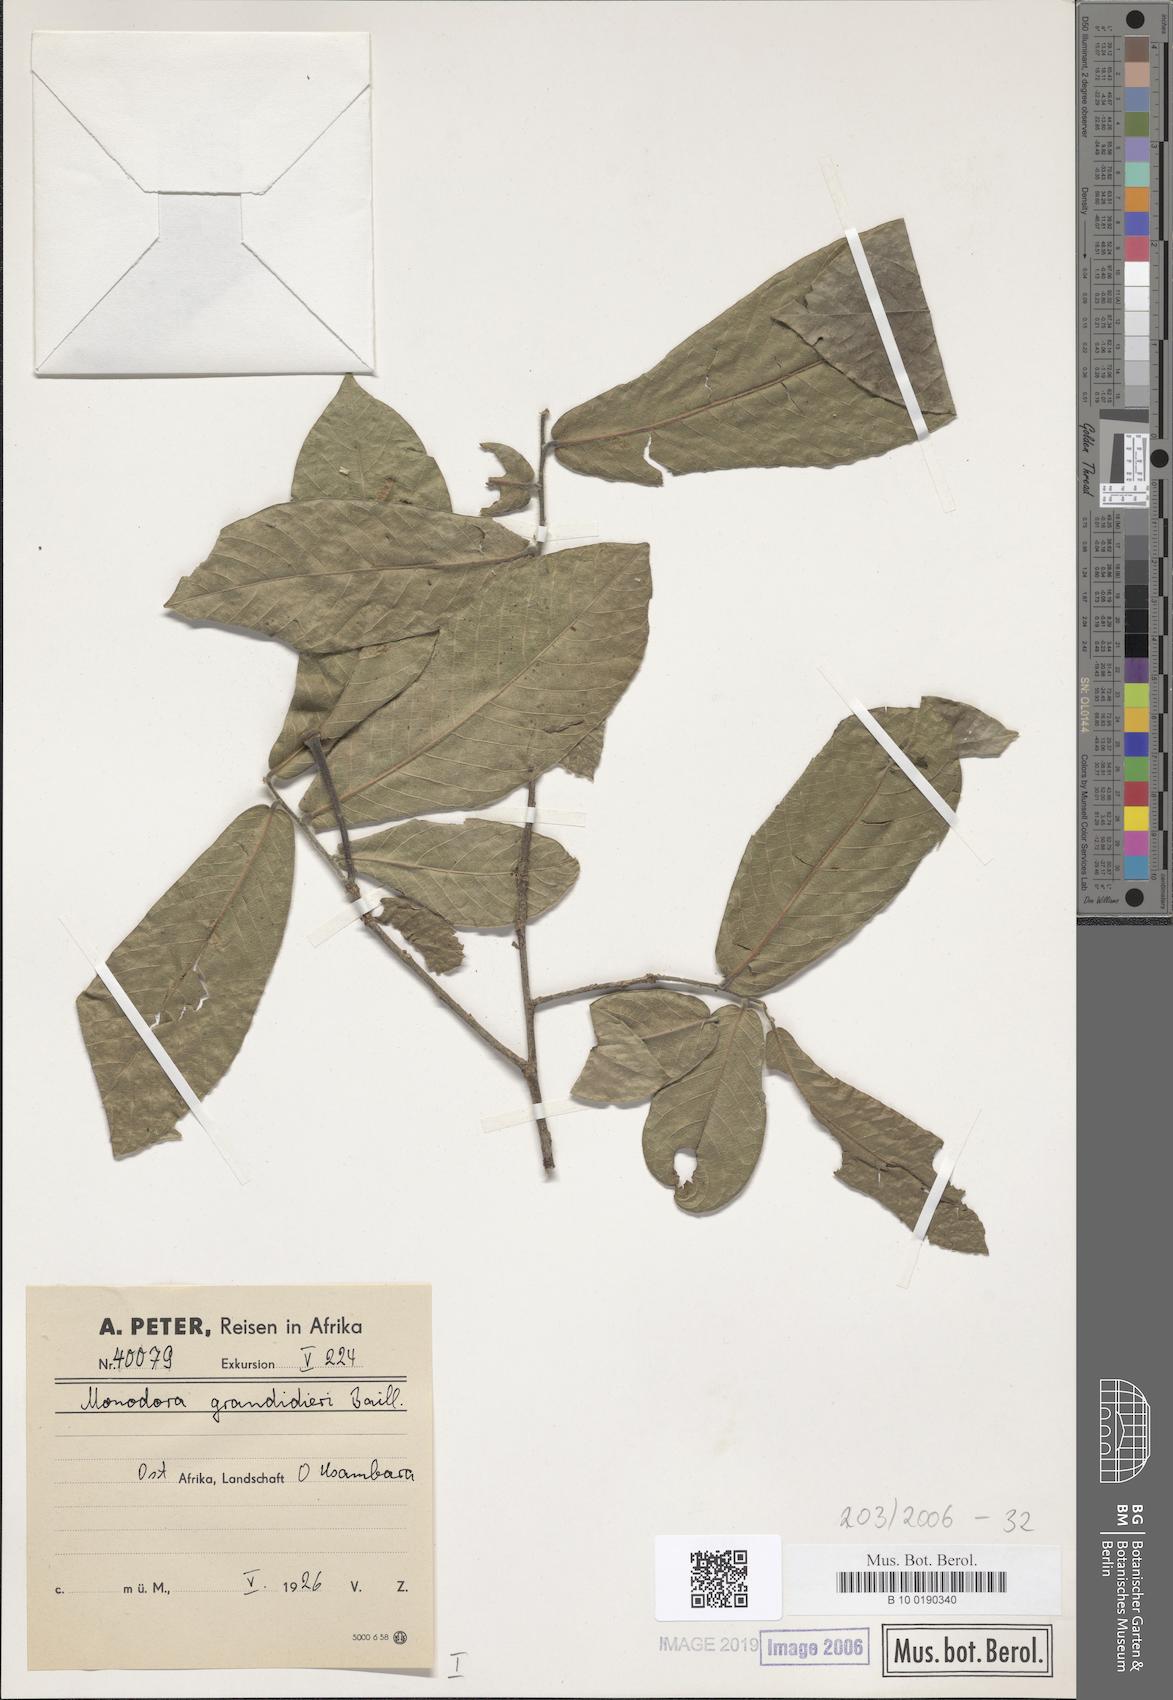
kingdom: Plantae
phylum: Tracheophyta
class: Magnoliopsida
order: Magnoliales
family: Annonaceae
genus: Monodora
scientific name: Monodora grandidieri
